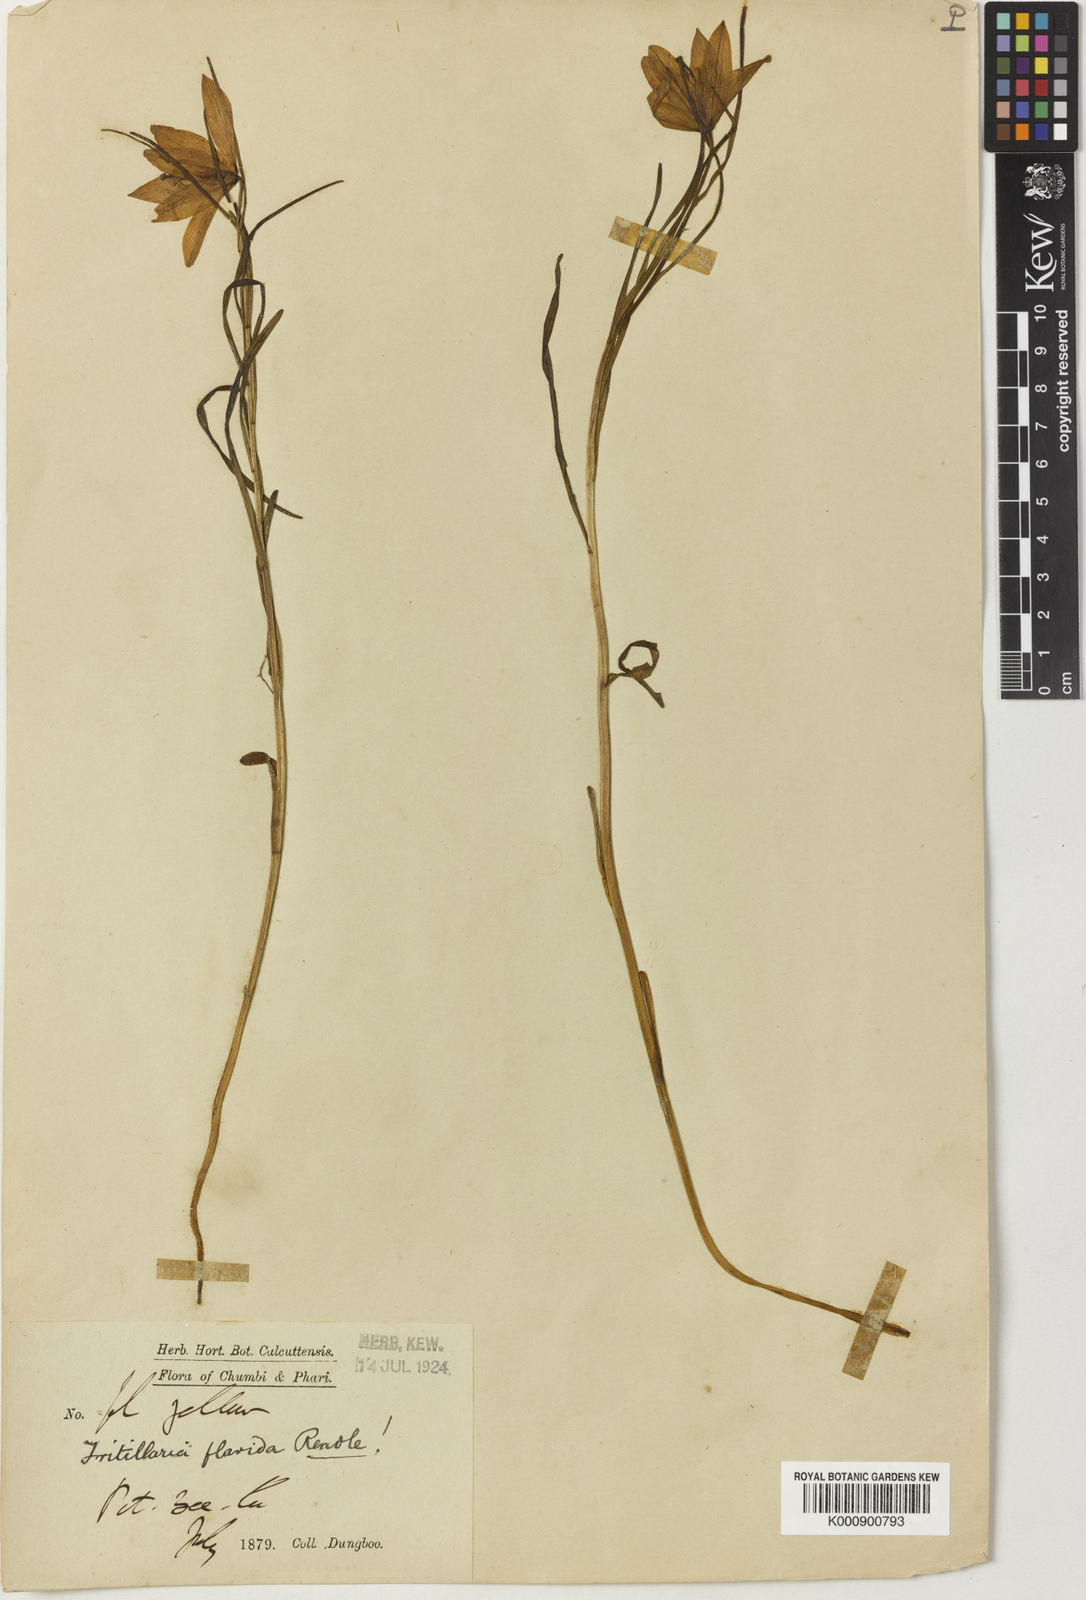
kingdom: Plantae
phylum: Tracheophyta
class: Liliopsida
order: Liliales
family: Liliaceae
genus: Lilium
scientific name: Lilium nanum
